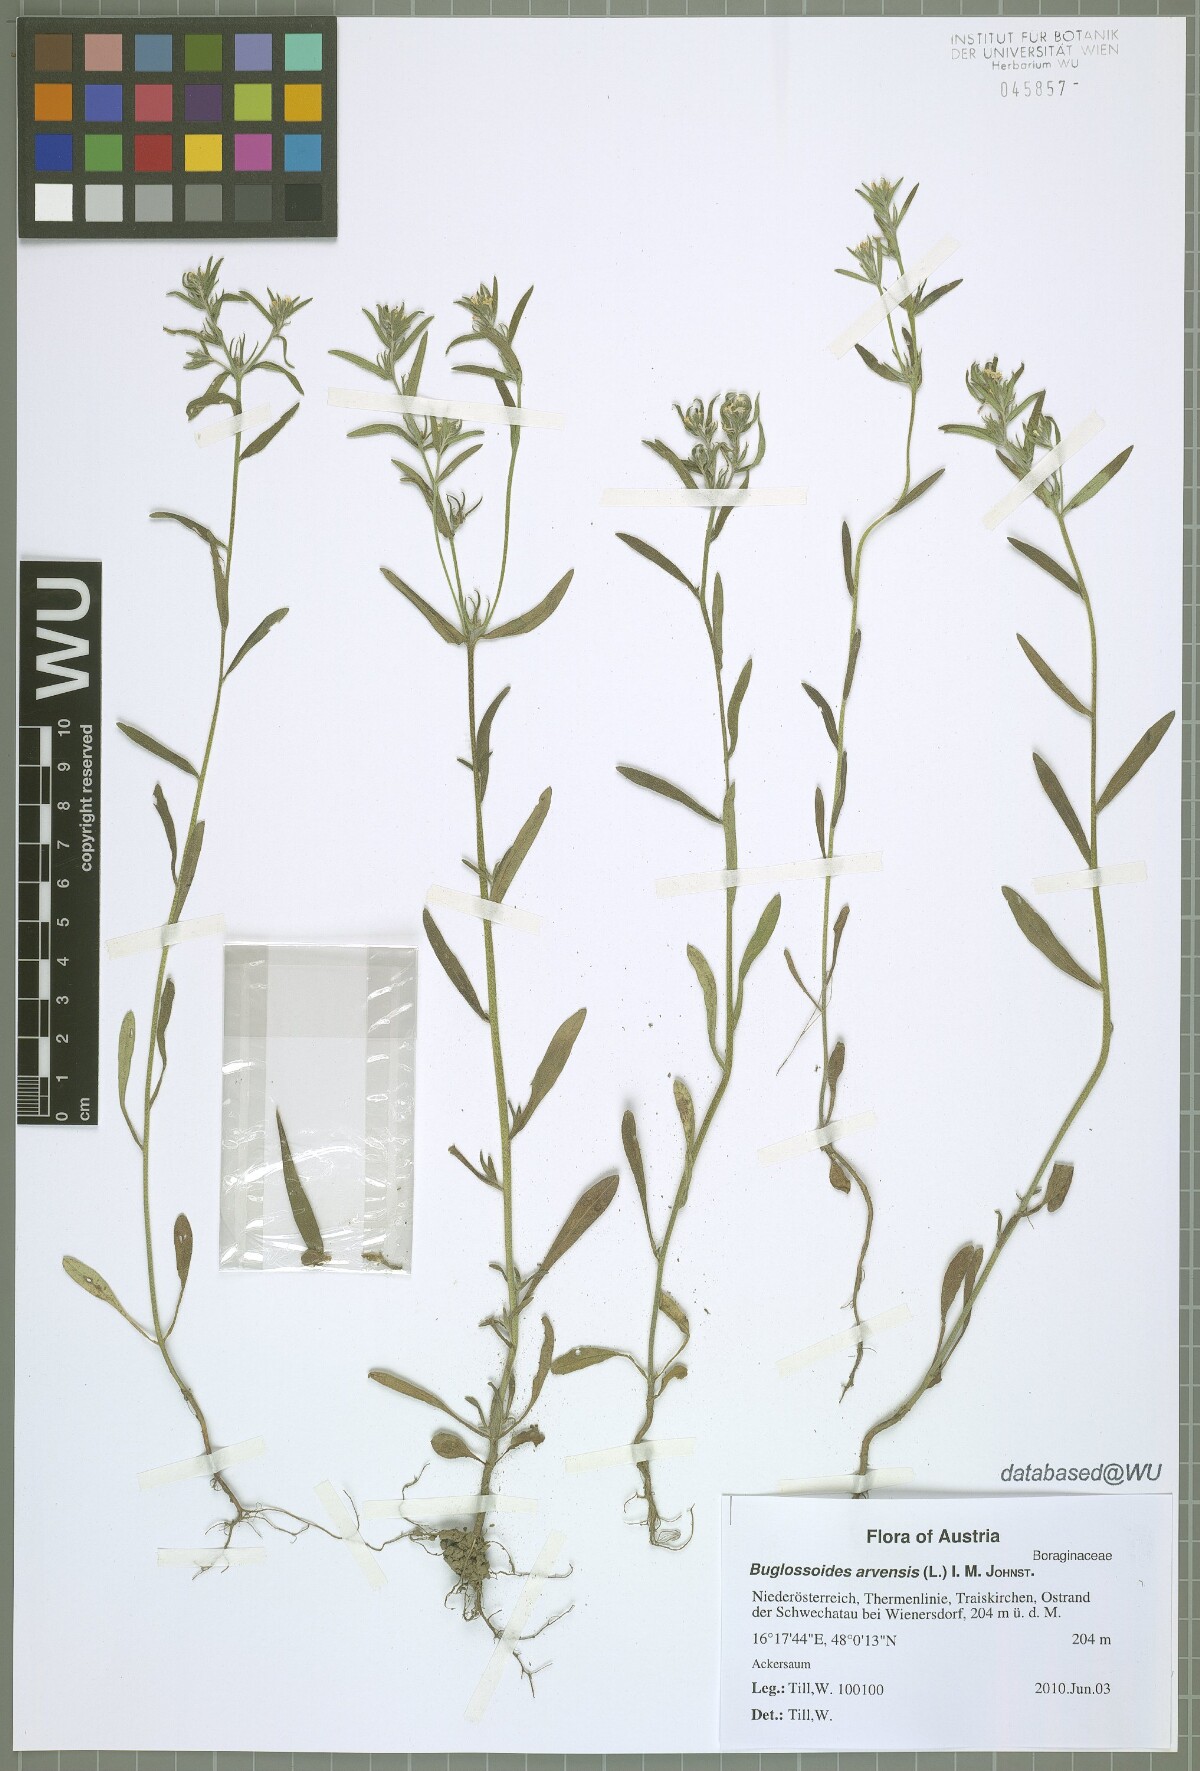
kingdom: Plantae
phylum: Tracheophyta
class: Magnoliopsida
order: Boraginales
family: Boraginaceae
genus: Buglossoides
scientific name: Buglossoides arvensis
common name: Corn gromwell
